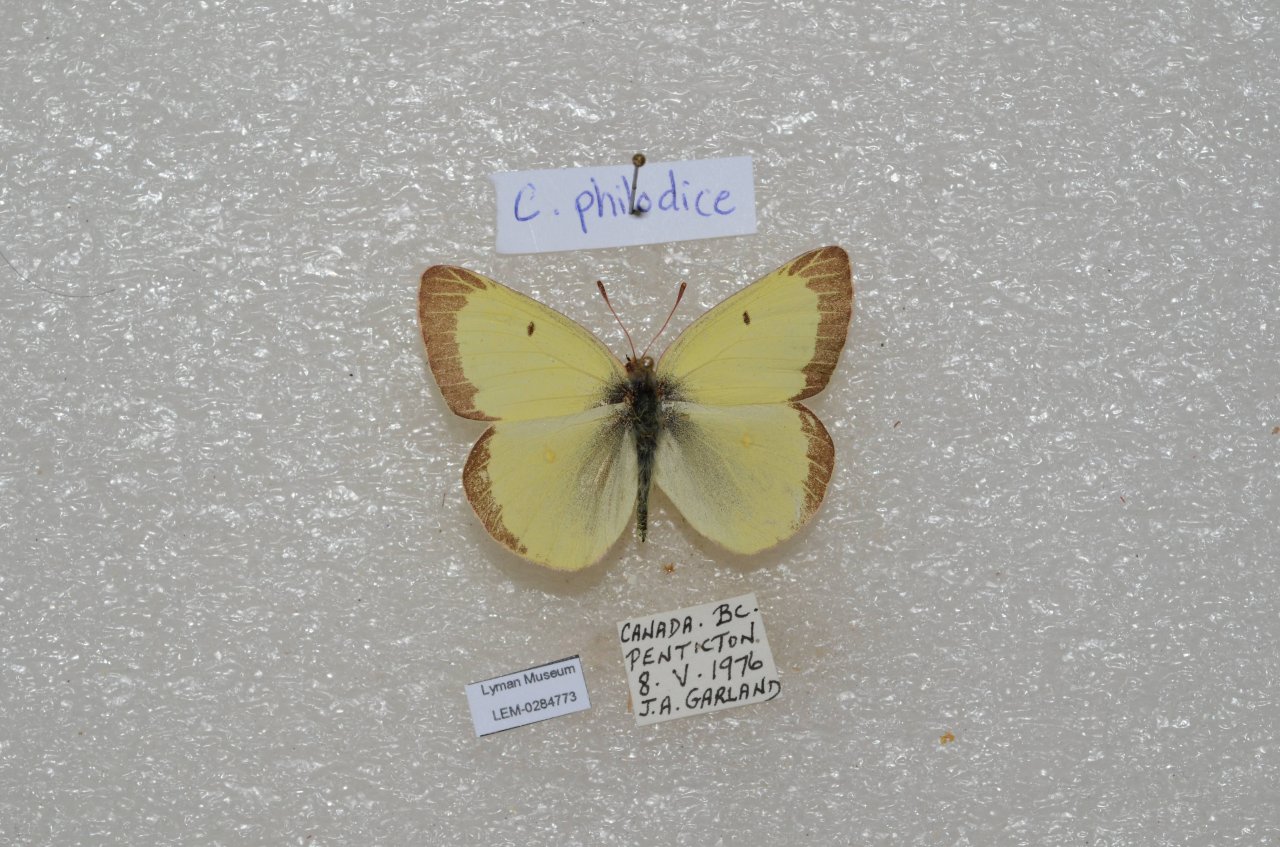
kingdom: Animalia
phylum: Arthropoda
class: Insecta
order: Lepidoptera
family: Pieridae
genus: Colias
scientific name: Colias philodice
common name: Clouded Sulphur
